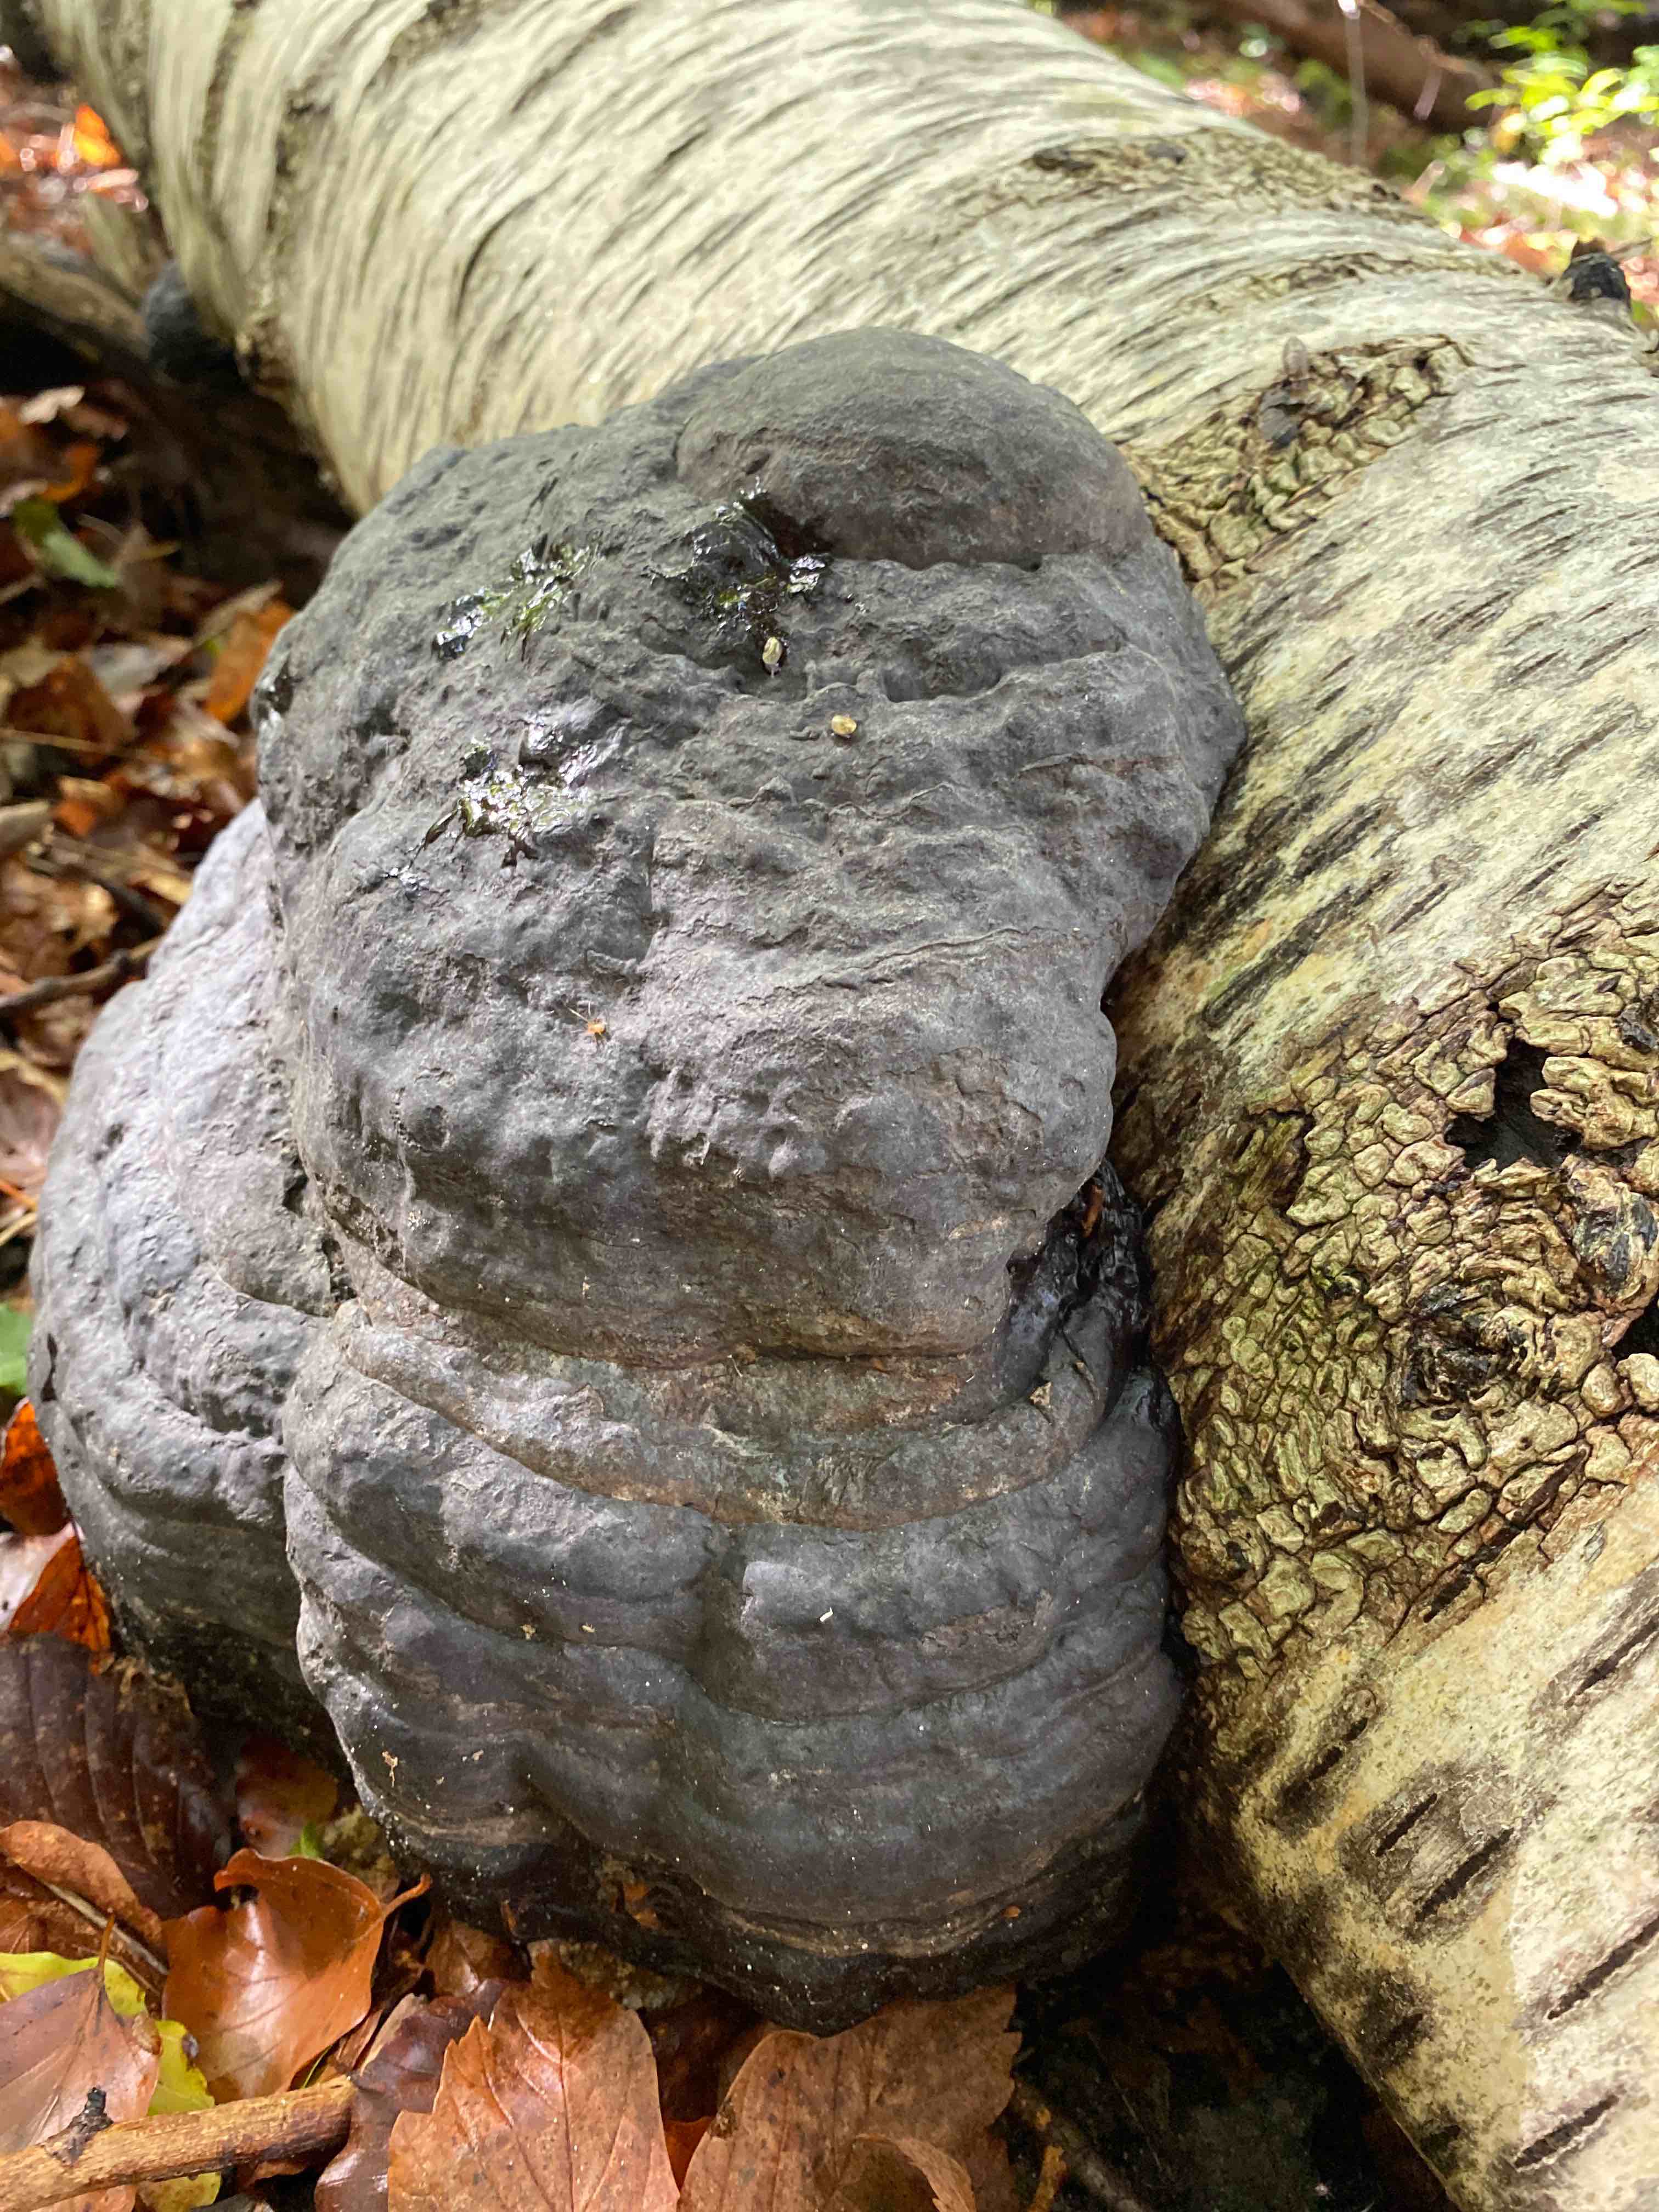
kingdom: Fungi
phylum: Basidiomycota
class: Agaricomycetes
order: Polyporales
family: Polyporaceae
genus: Fomes
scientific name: Fomes fomentarius
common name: tøndersvamp
